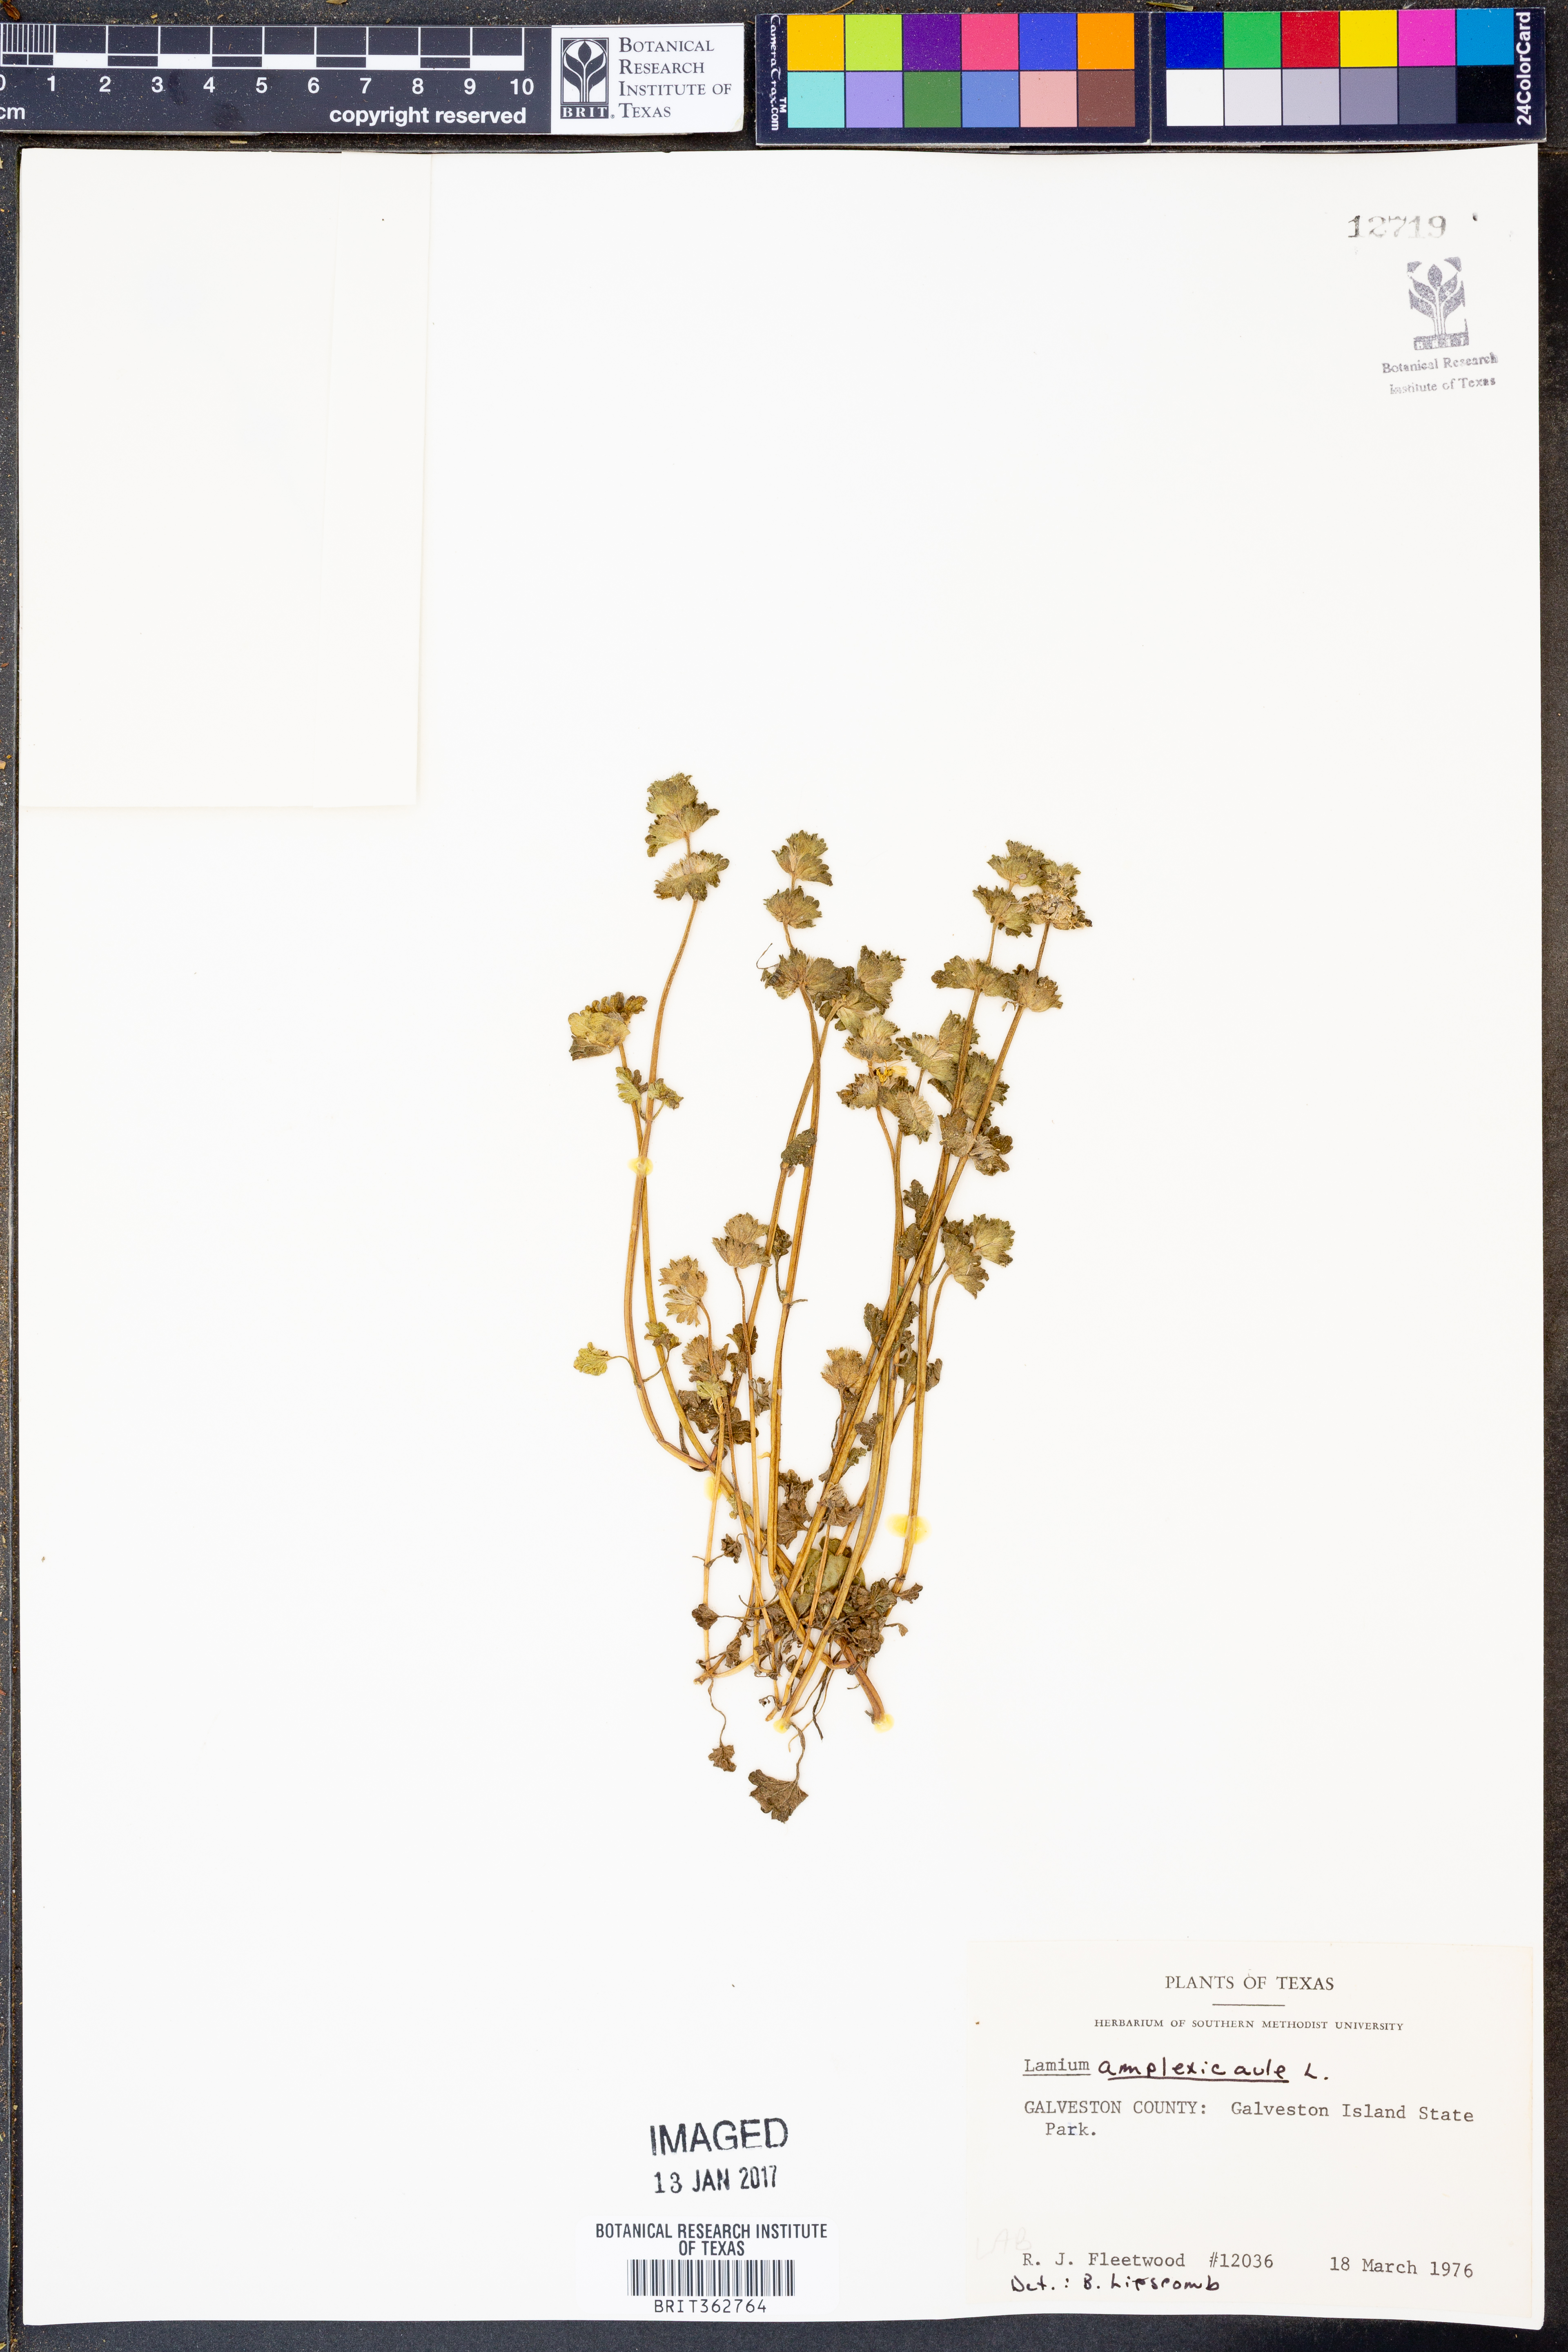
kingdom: Plantae
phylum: Tracheophyta
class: Magnoliopsida
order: Lamiales
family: Lamiaceae
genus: Lamium
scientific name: Lamium amplexicaule
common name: Henbit dead-nettle
